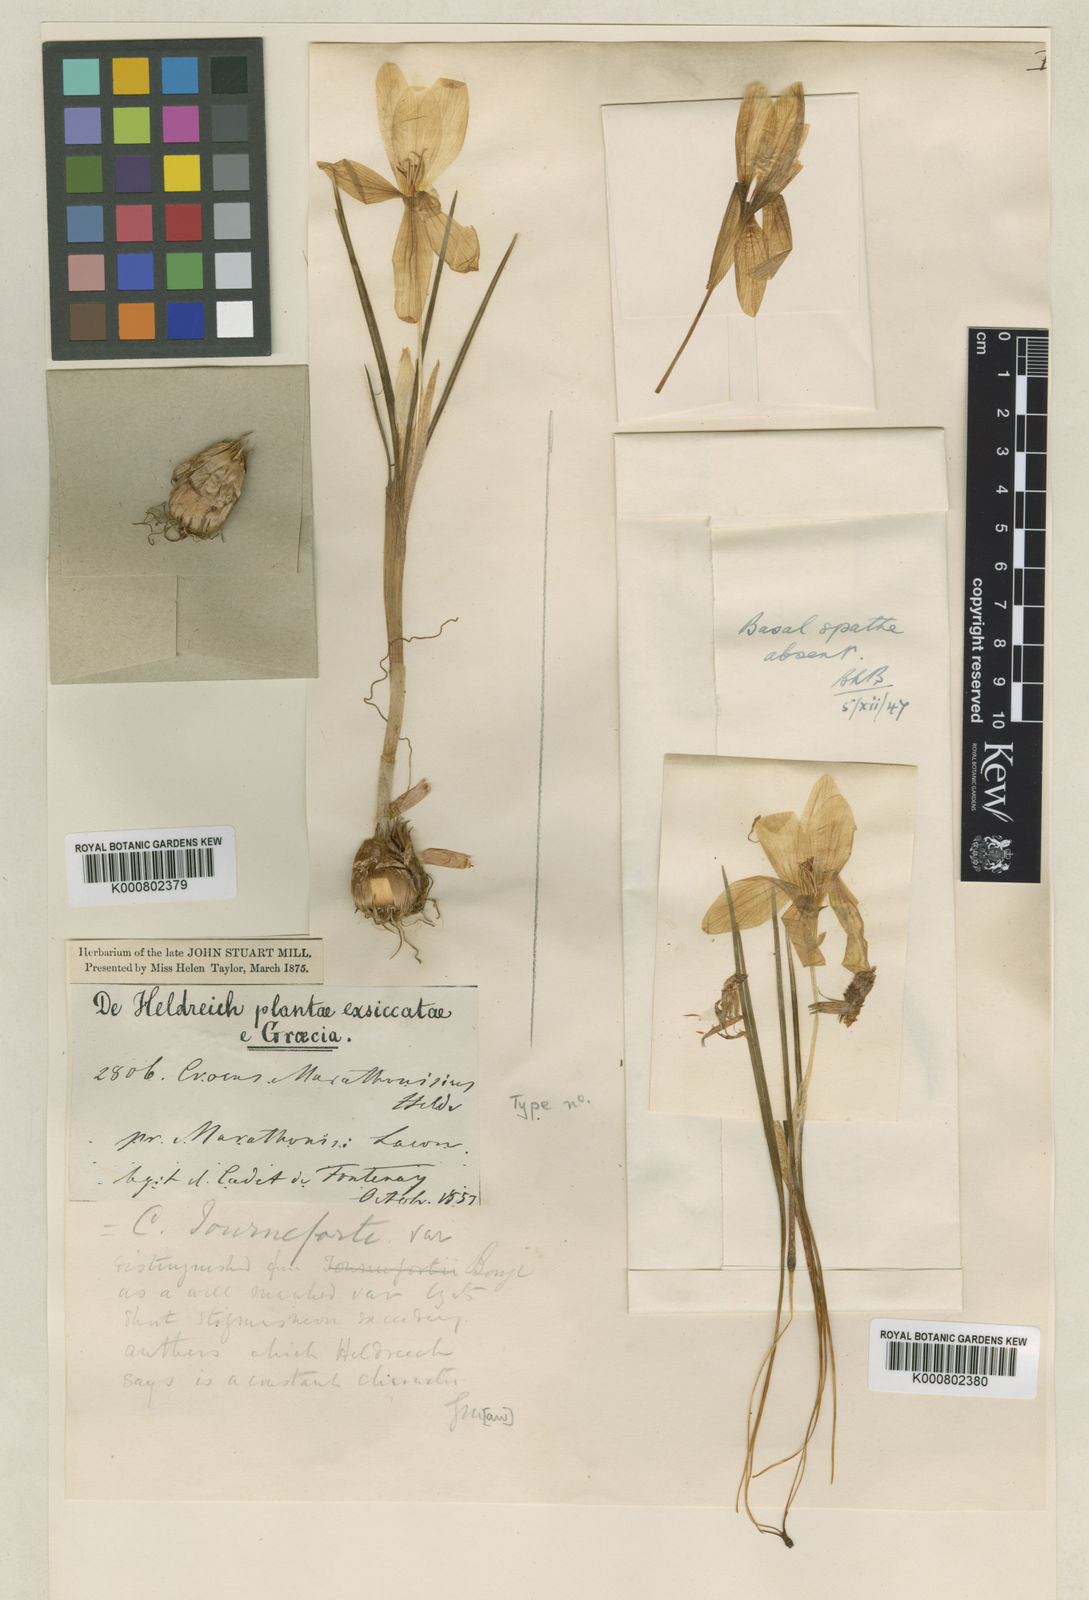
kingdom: Plantae
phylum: Tracheophyta
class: Liliopsida
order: Asparagales
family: Iridaceae
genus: Crocus
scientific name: Crocus boryi
